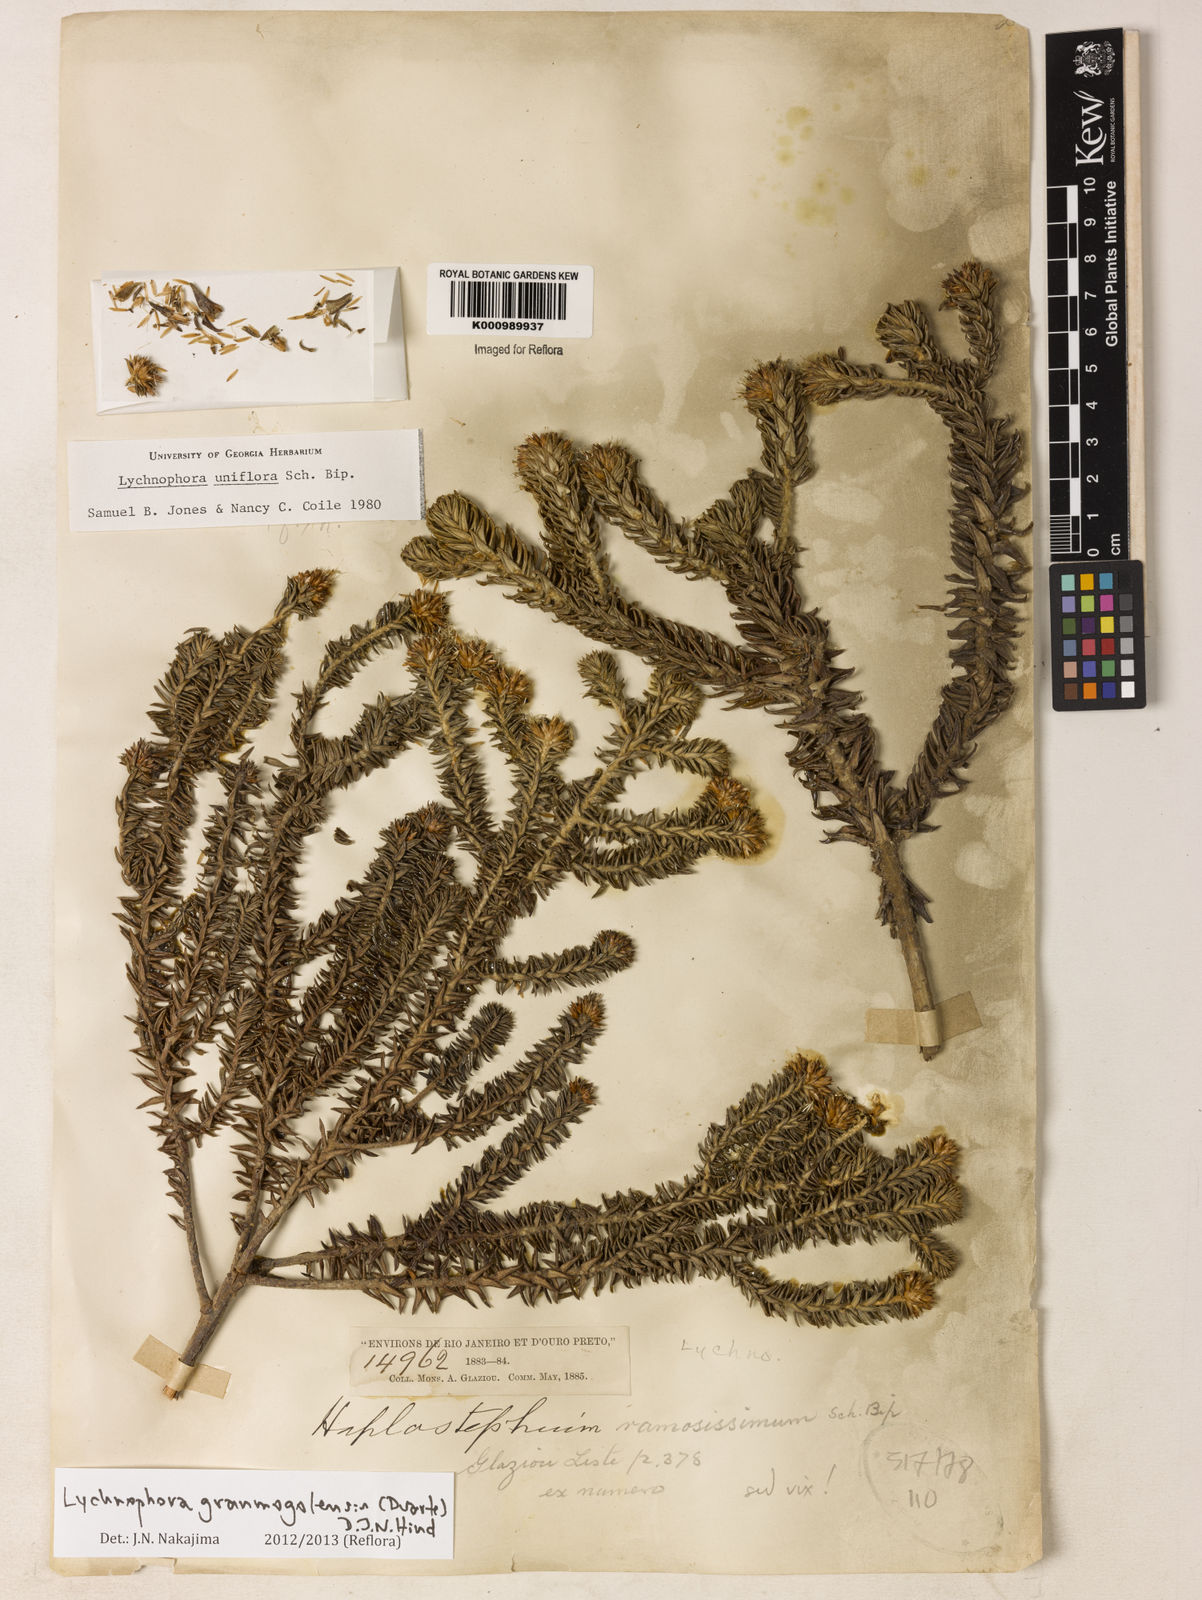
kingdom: Plantae
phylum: Tracheophyta
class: Magnoliopsida
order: Asterales
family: Asteraceae
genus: Lychnophora
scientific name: Lychnophora granmogolensis
